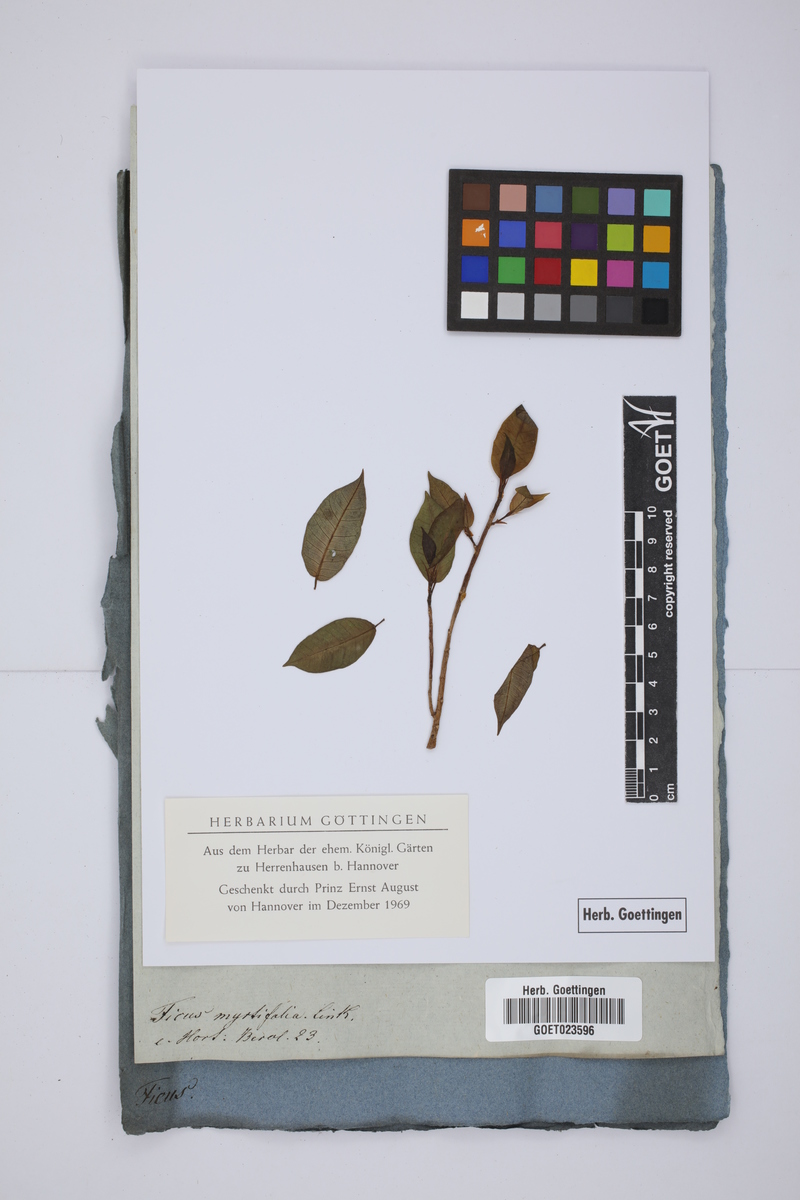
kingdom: Plantae
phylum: Tracheophyta
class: Magnoliopsida
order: Rosales
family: Moraceae
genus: Ficus
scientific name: Ficus pertusa
